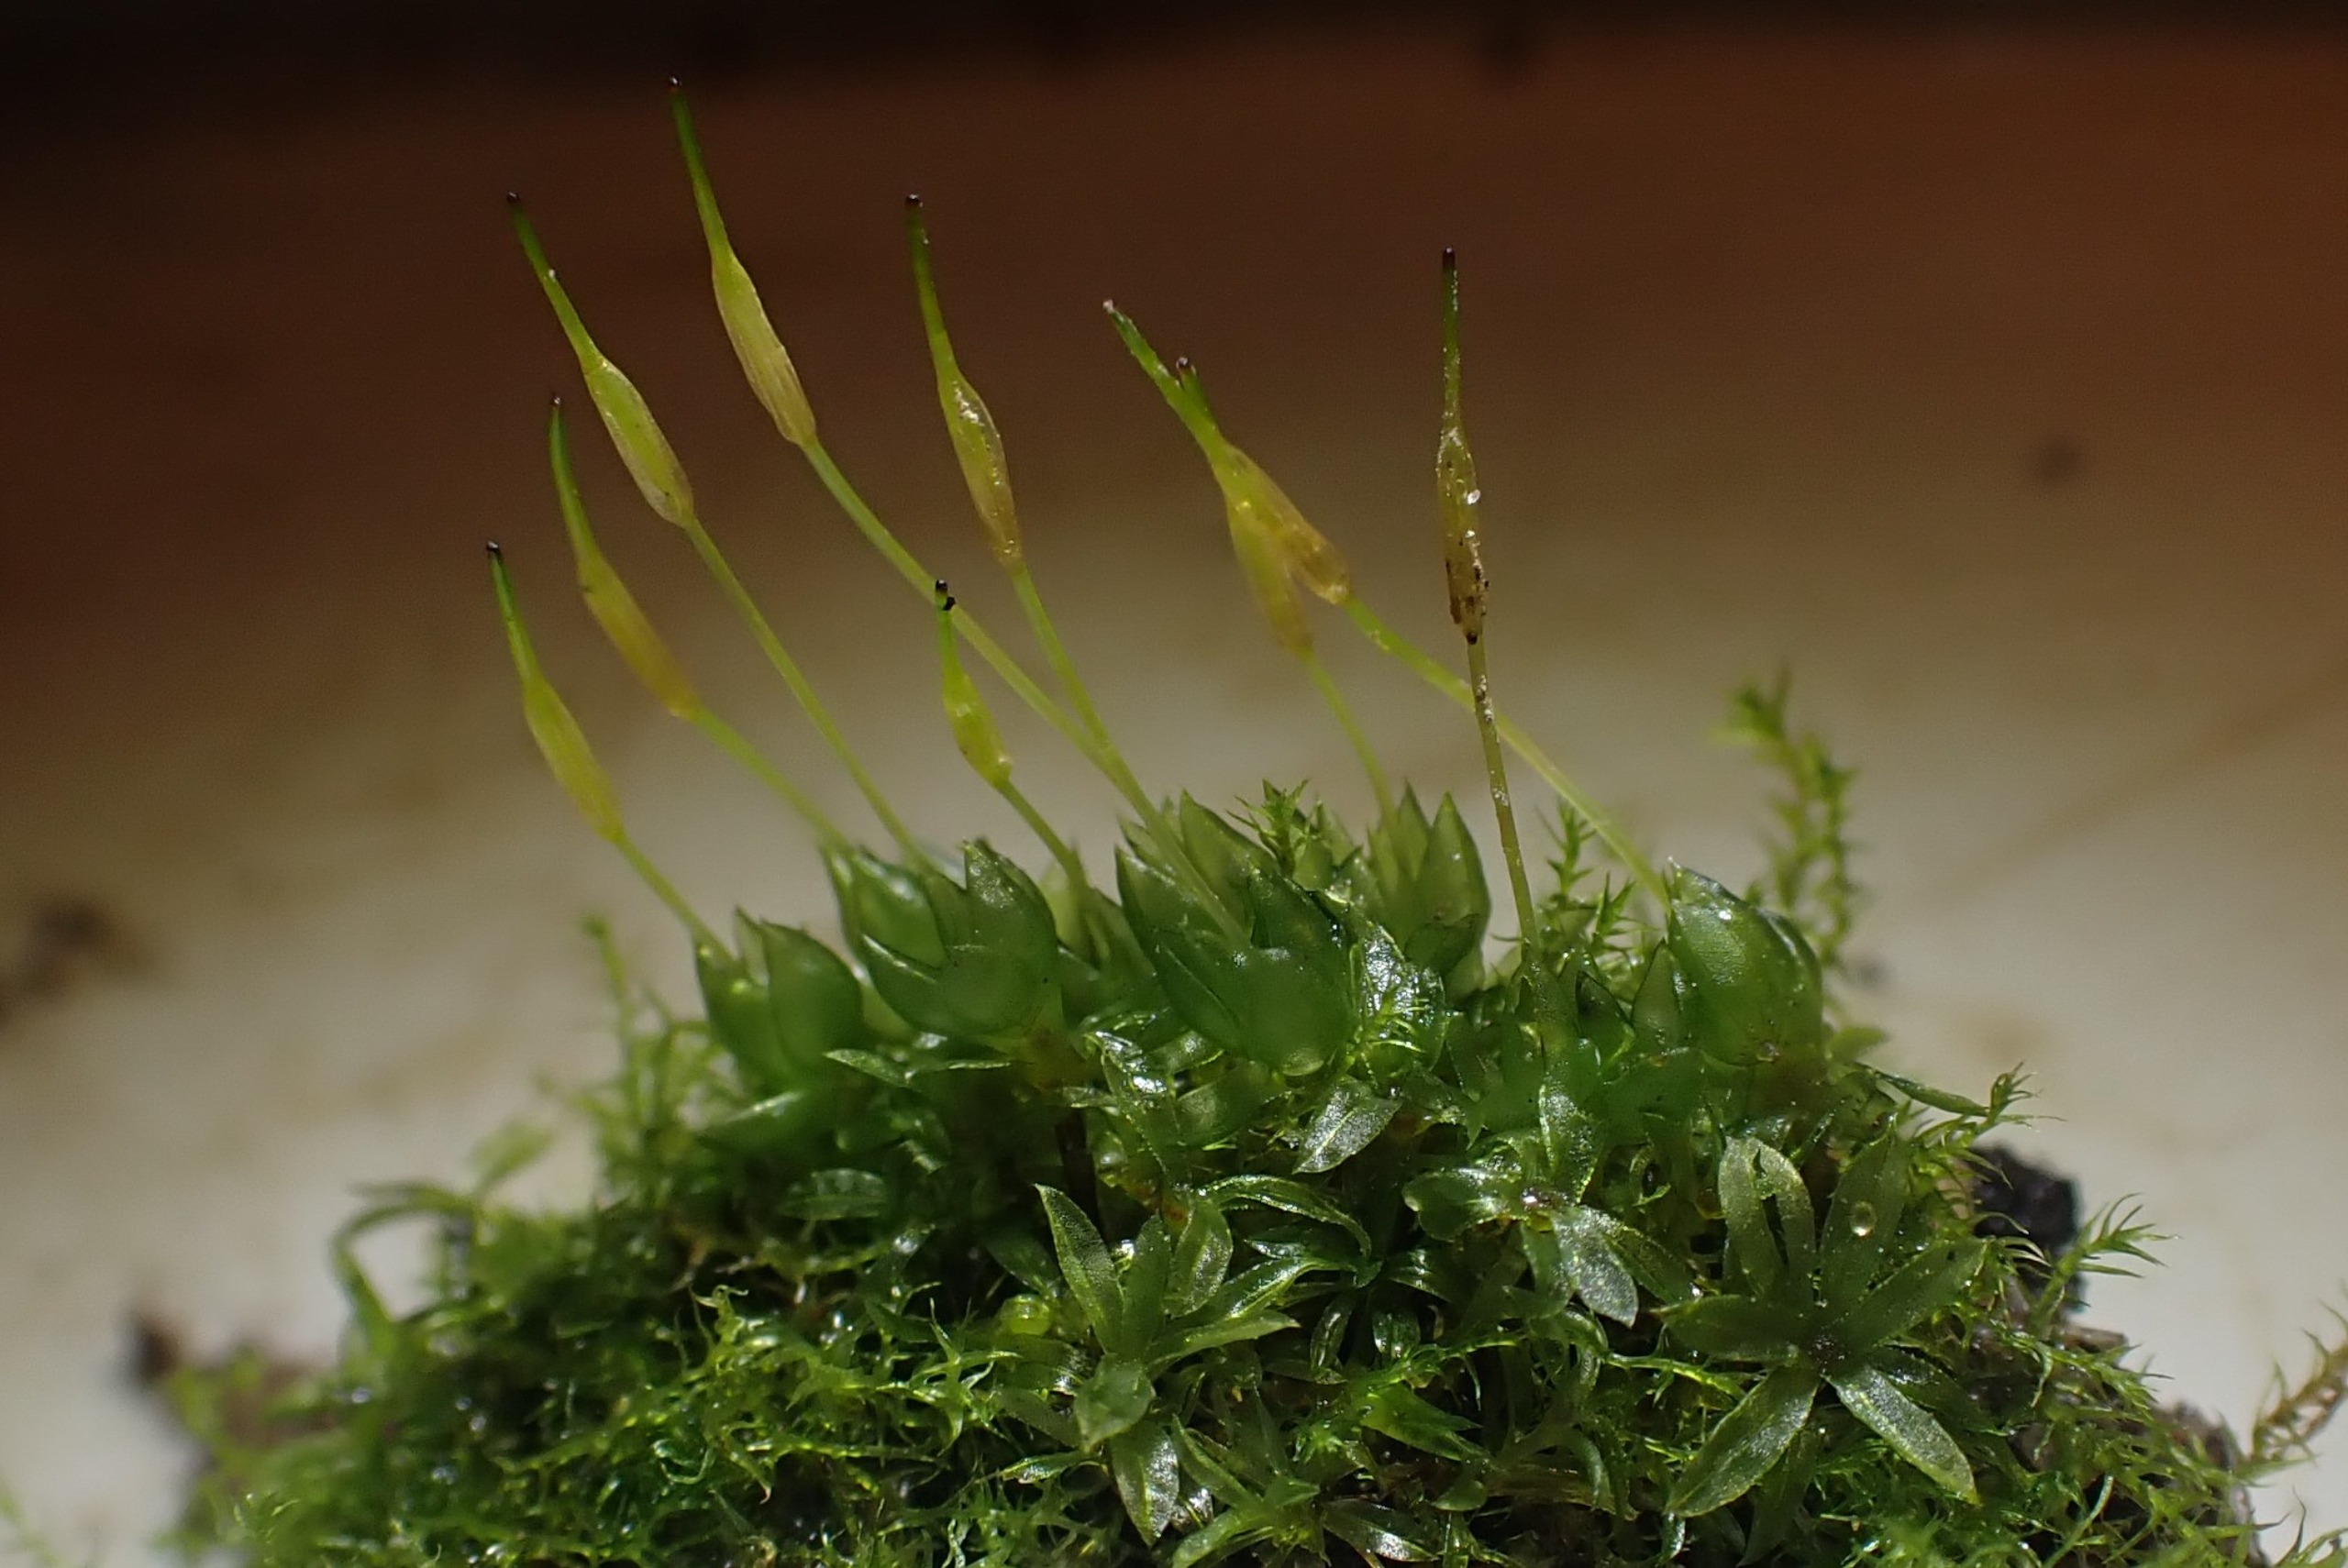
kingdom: Plantae
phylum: Bryophyta
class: Bryopsida
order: Funariales
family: Funariaceae
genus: Funaria
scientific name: Funaria hygrometrica
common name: Almindelig snobørste
